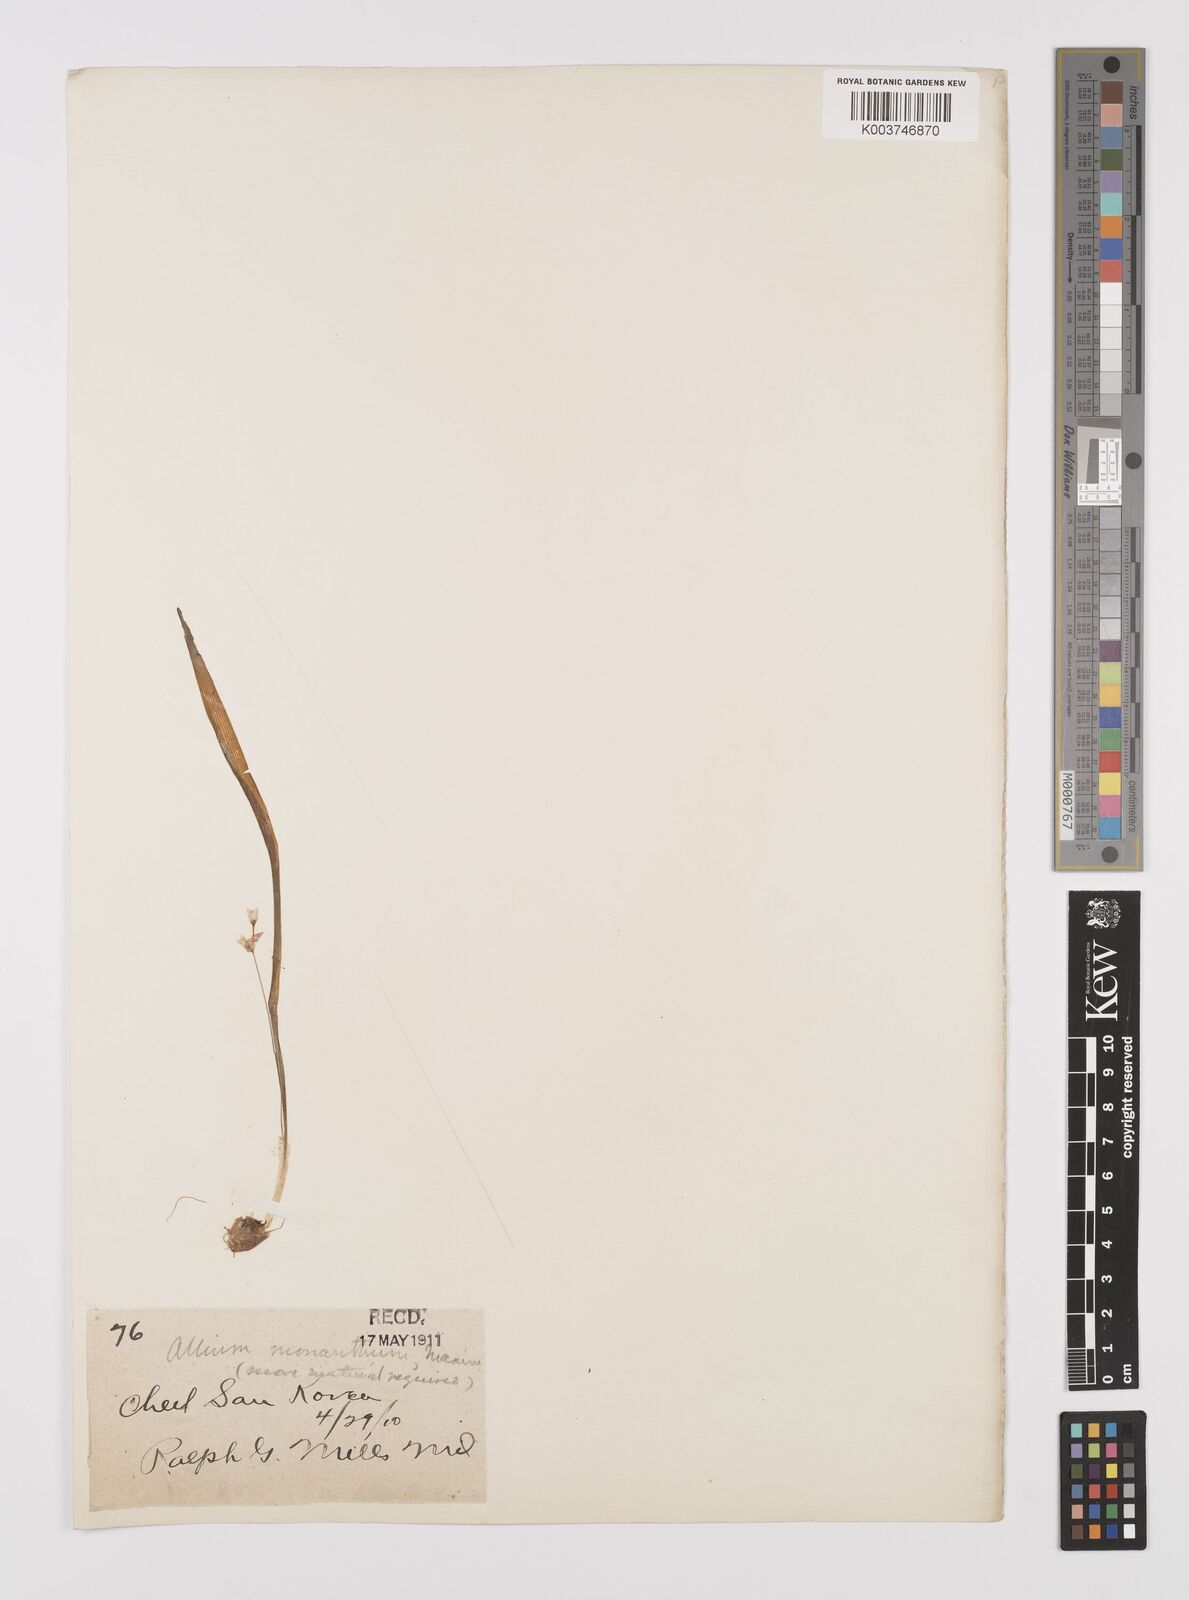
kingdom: Plantae
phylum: Tracheophyta
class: Liliopsida
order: Asparagales
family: Amaryllidaceae
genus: Allium
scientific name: Allium monanthum
